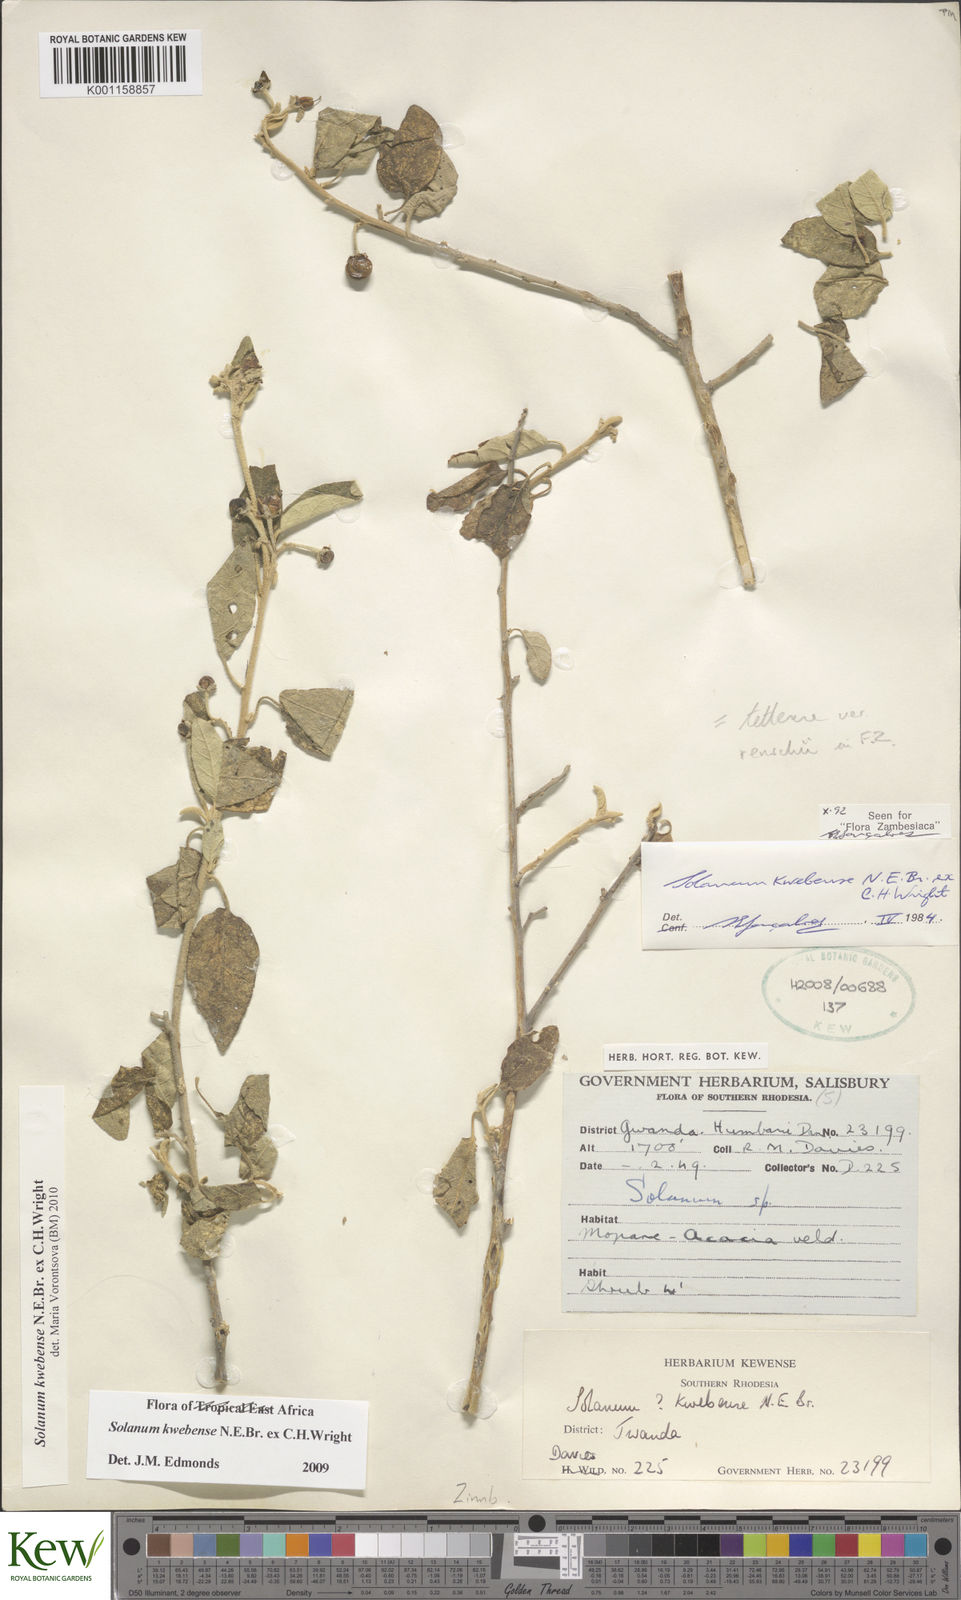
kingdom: Plantae
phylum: Tracheophyta
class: Magnoliopsida
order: Solanales
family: Solanaceae
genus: Solanum
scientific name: Solanum tettense
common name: Mozambique bitter apple
